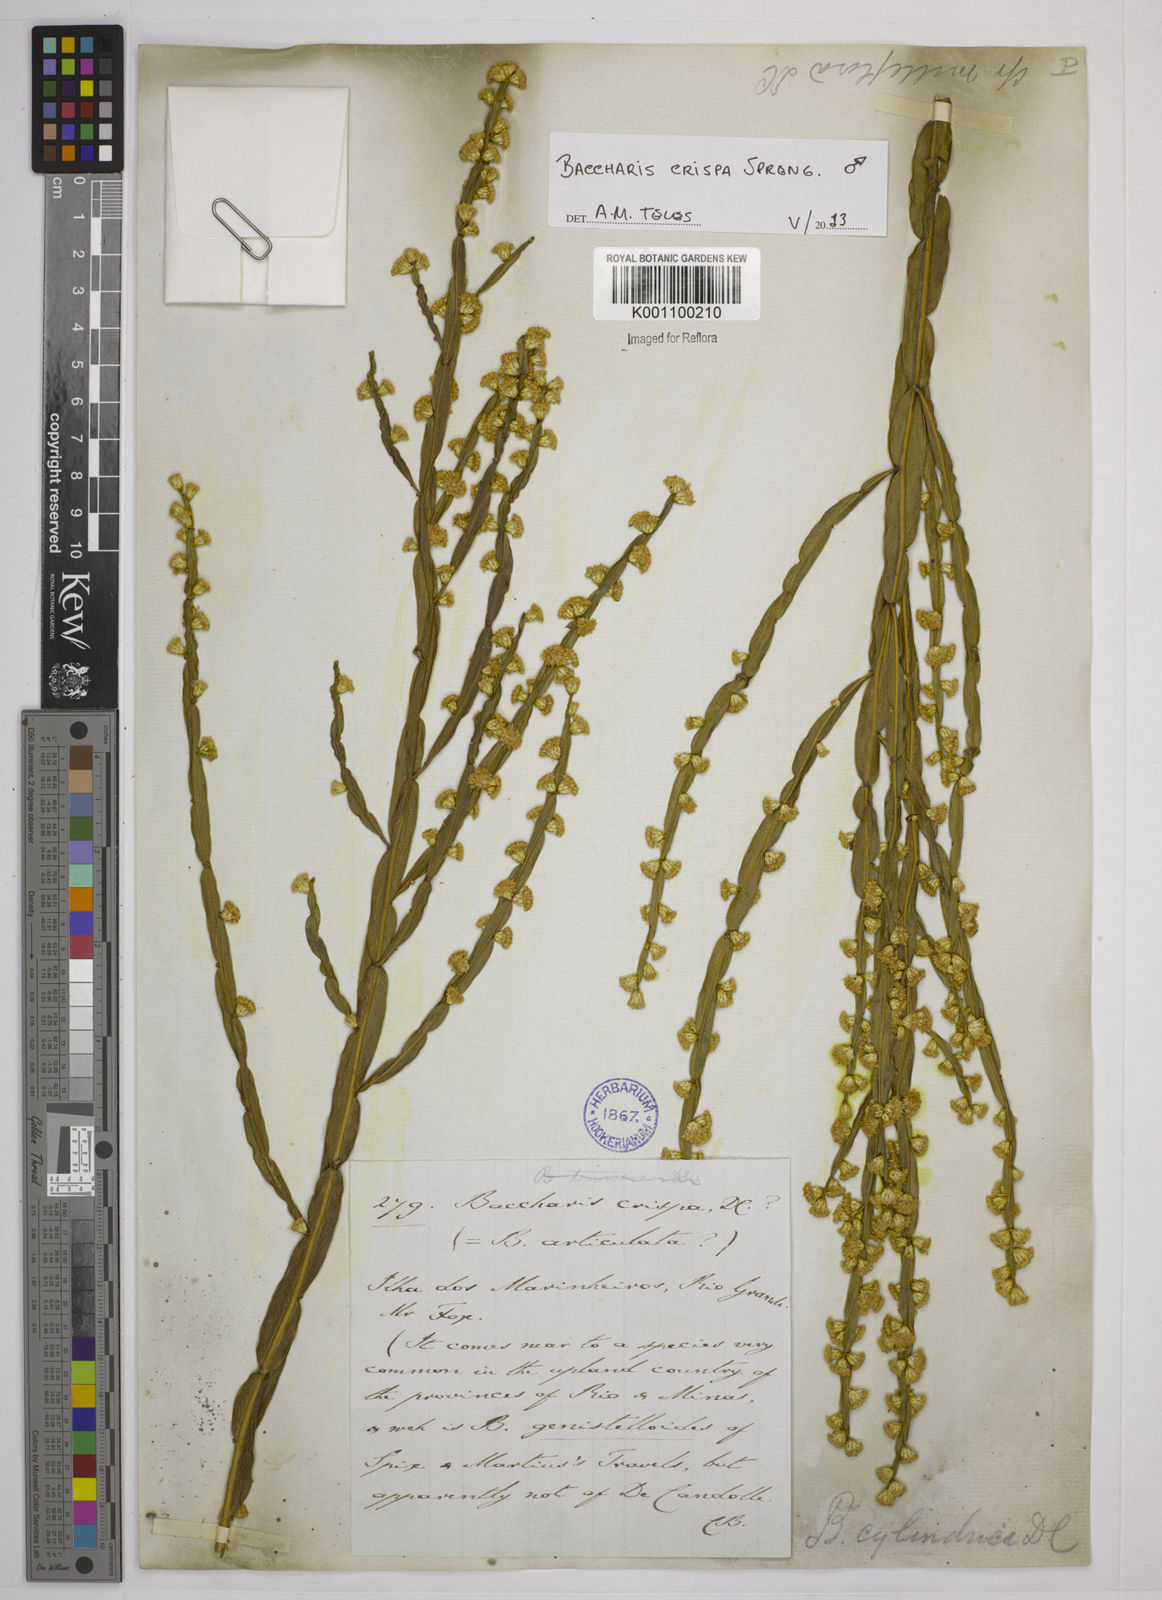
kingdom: Plantae
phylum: Tracheophyta
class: Magnoliopsida
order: Asterales
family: Asteraceae
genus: Baccharis
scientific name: Baccharis crispa
